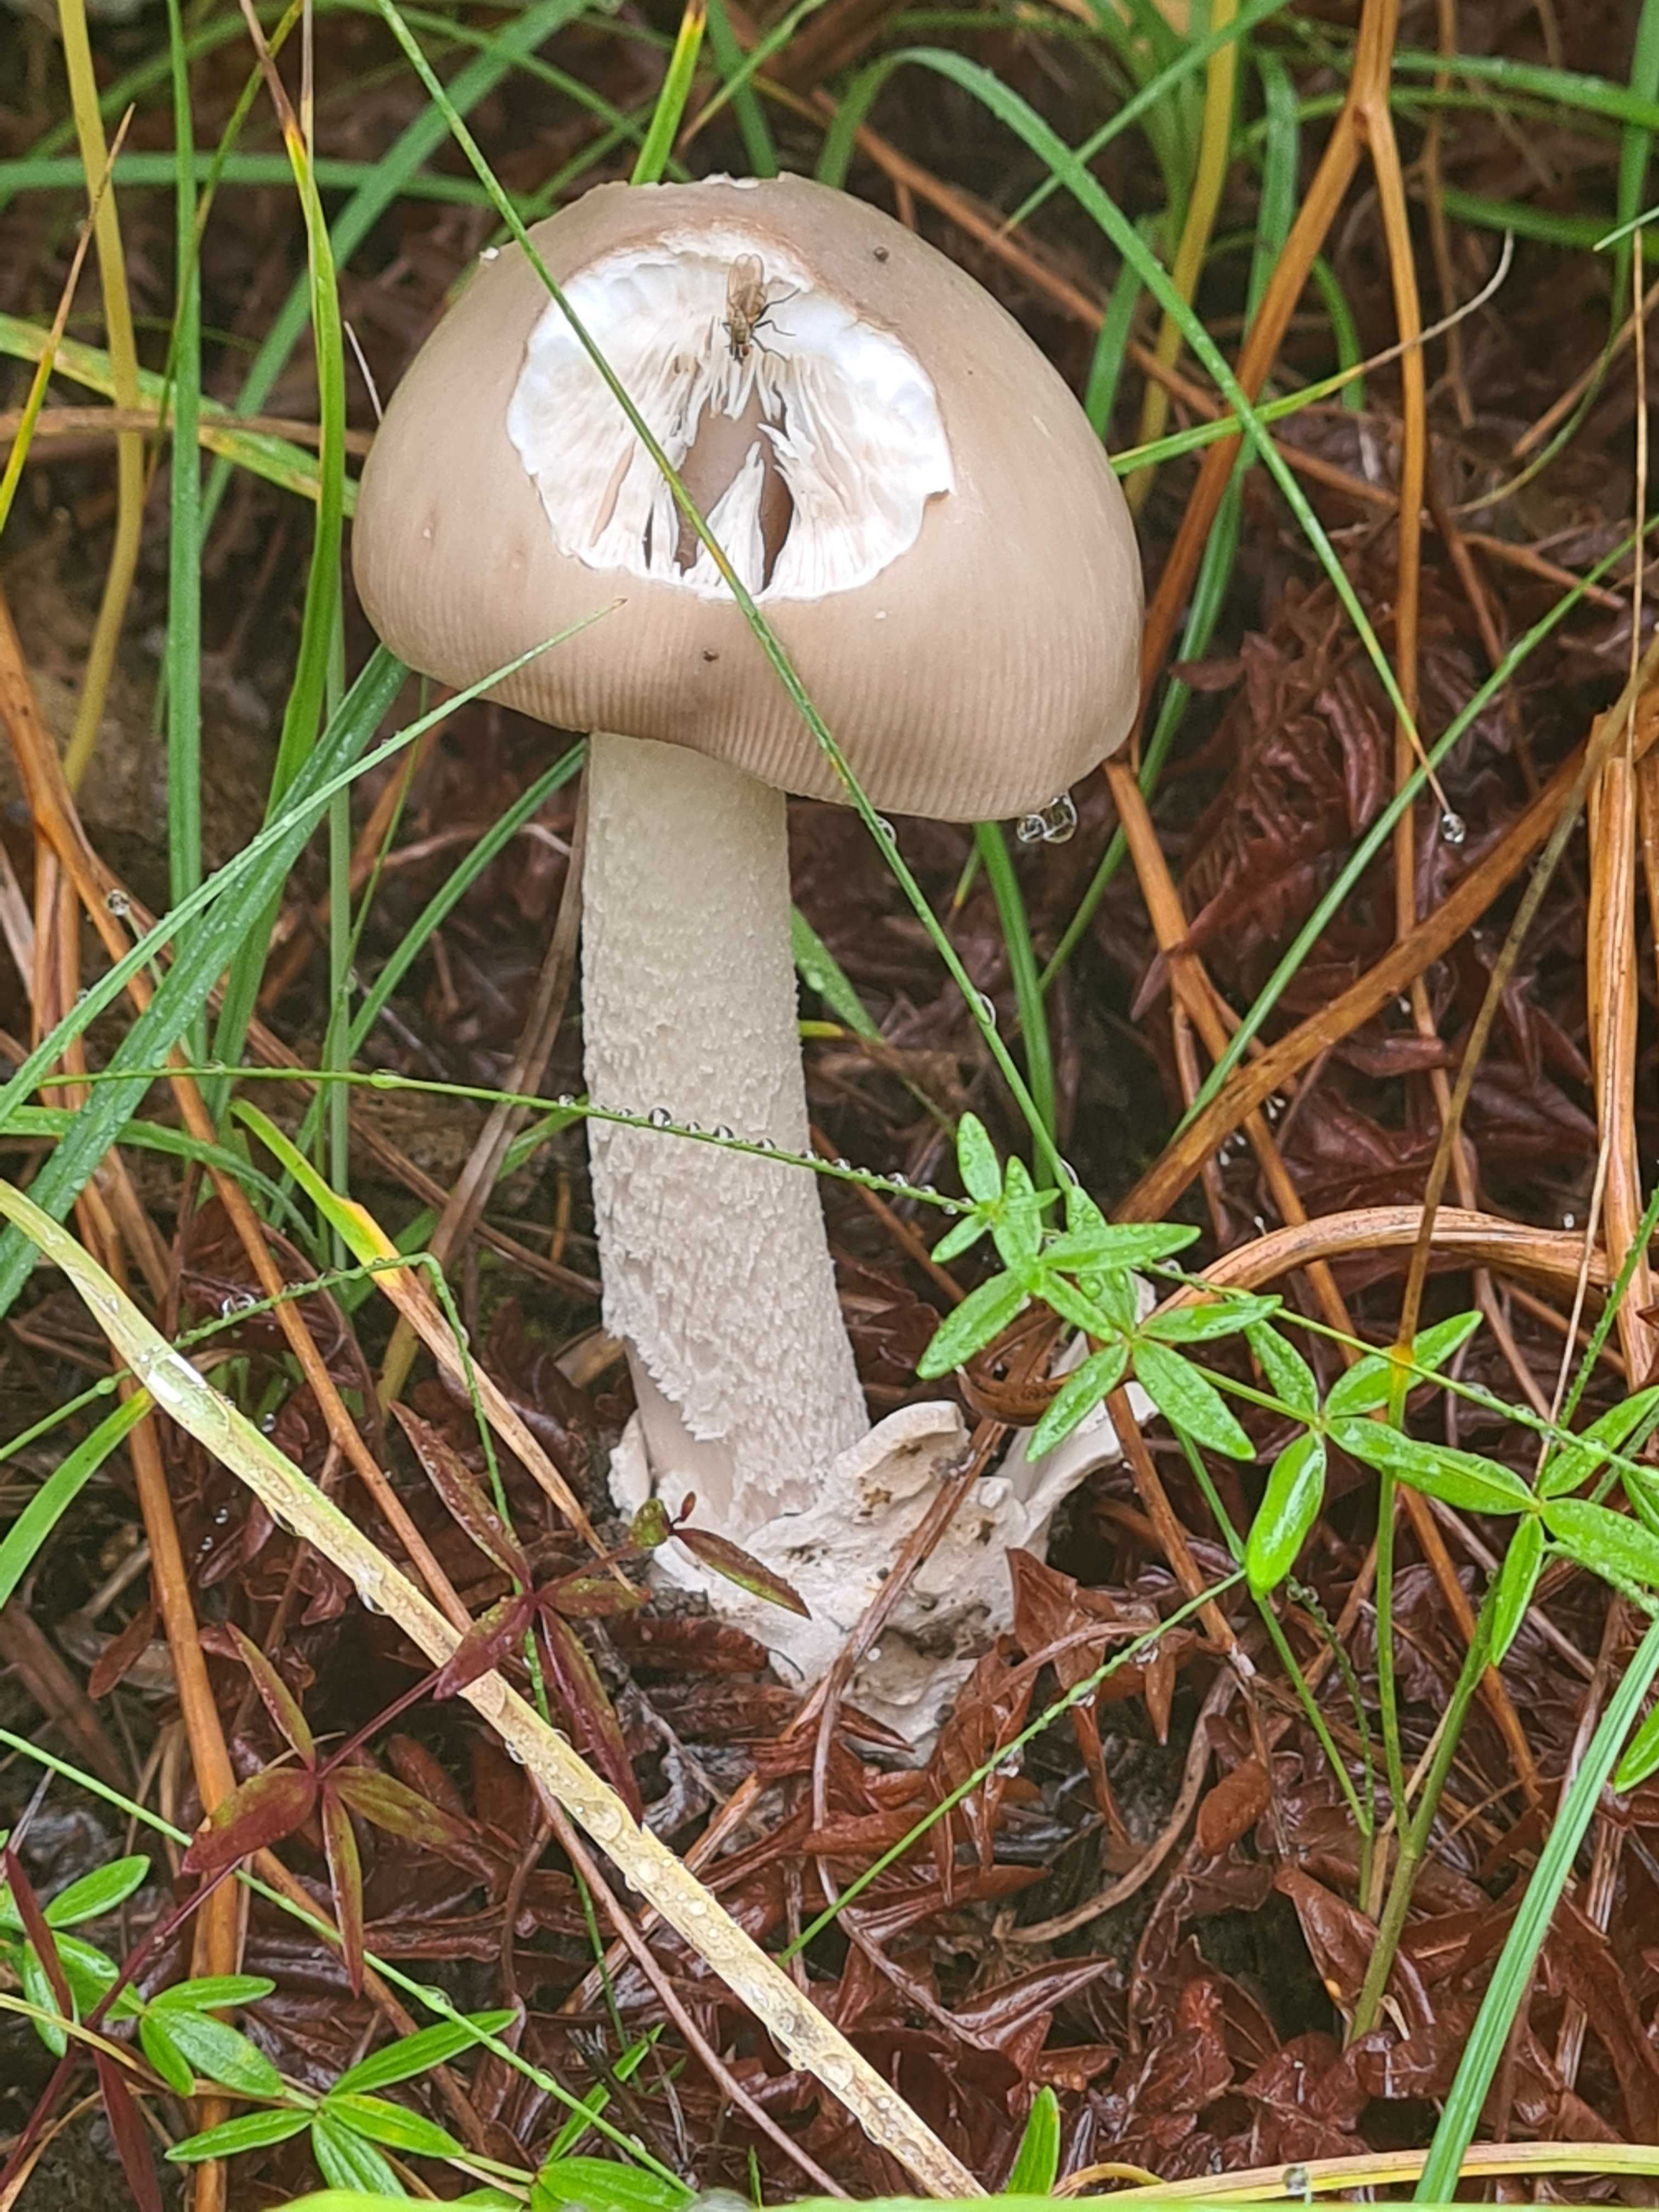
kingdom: Fungi
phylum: Basidiomycota
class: Agaricomycetes
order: Agaricales
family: Amanitaceae
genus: Amanita
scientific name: Amanita
